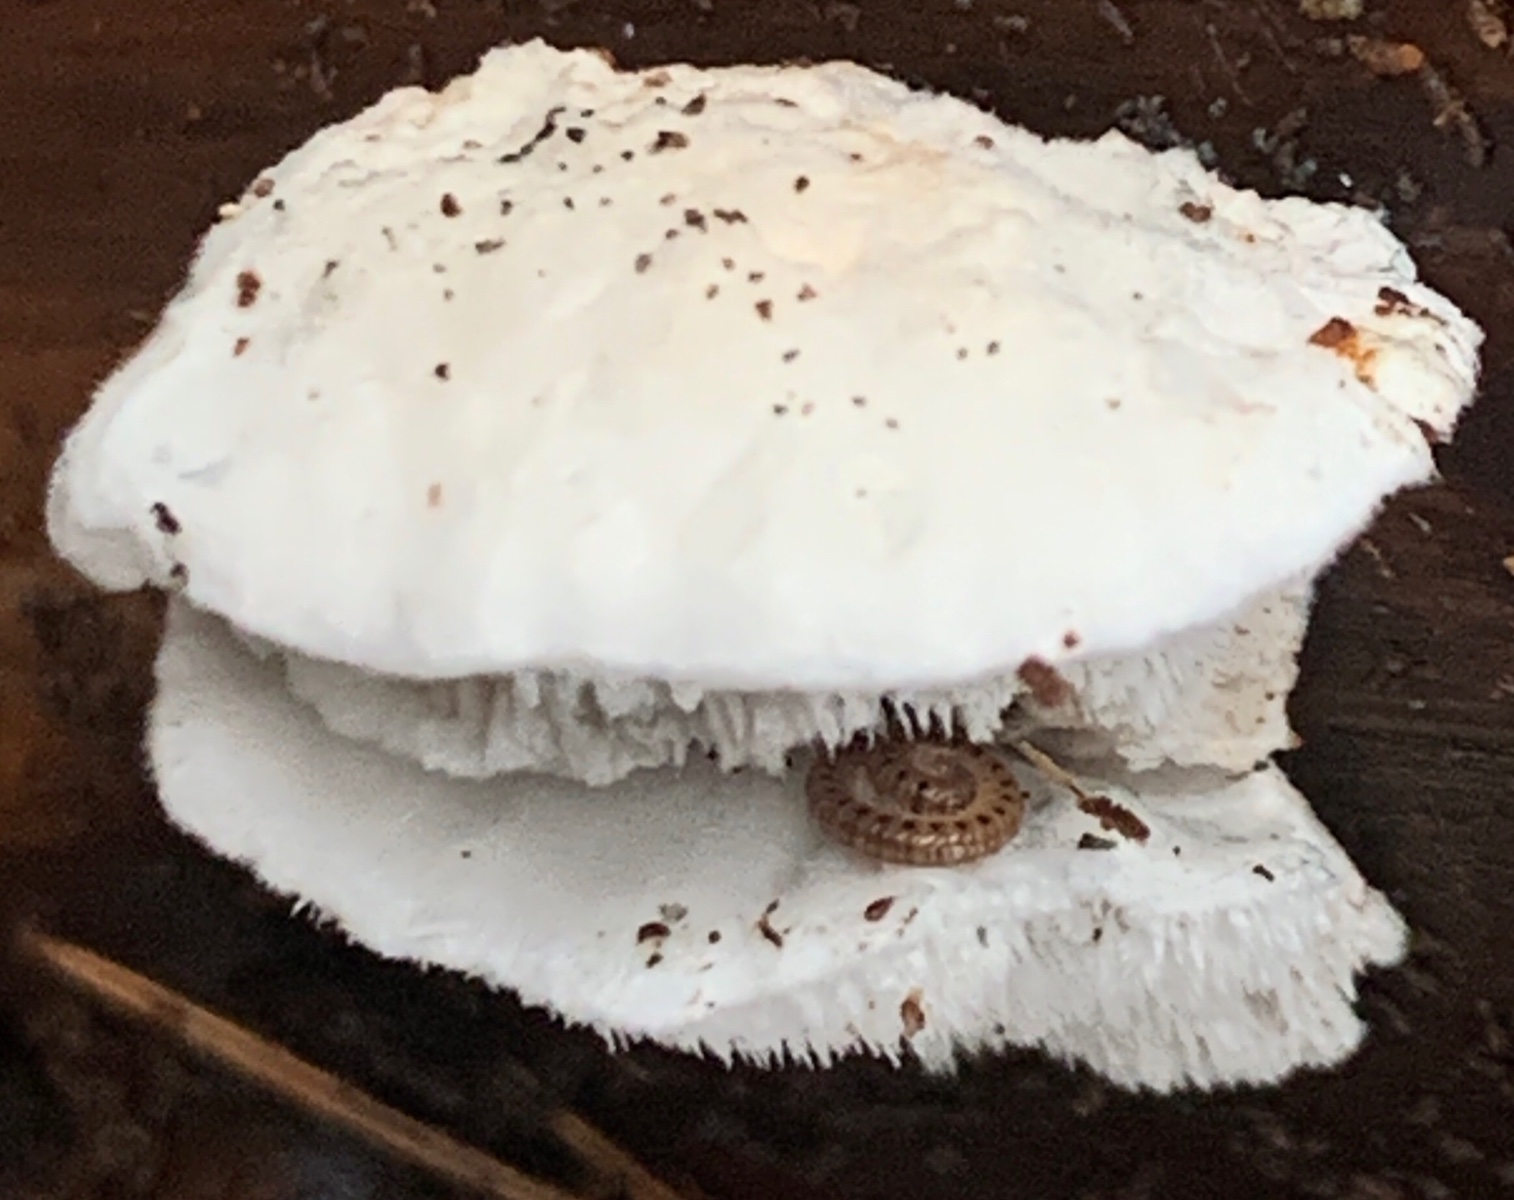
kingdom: Fungi
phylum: Basidiomycota
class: Agaricomycetes
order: Polyporales
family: Incrustoporiaceae
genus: Tyromyces
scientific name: Tyromyces lacteus
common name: mælkehvid kødporesvamp
